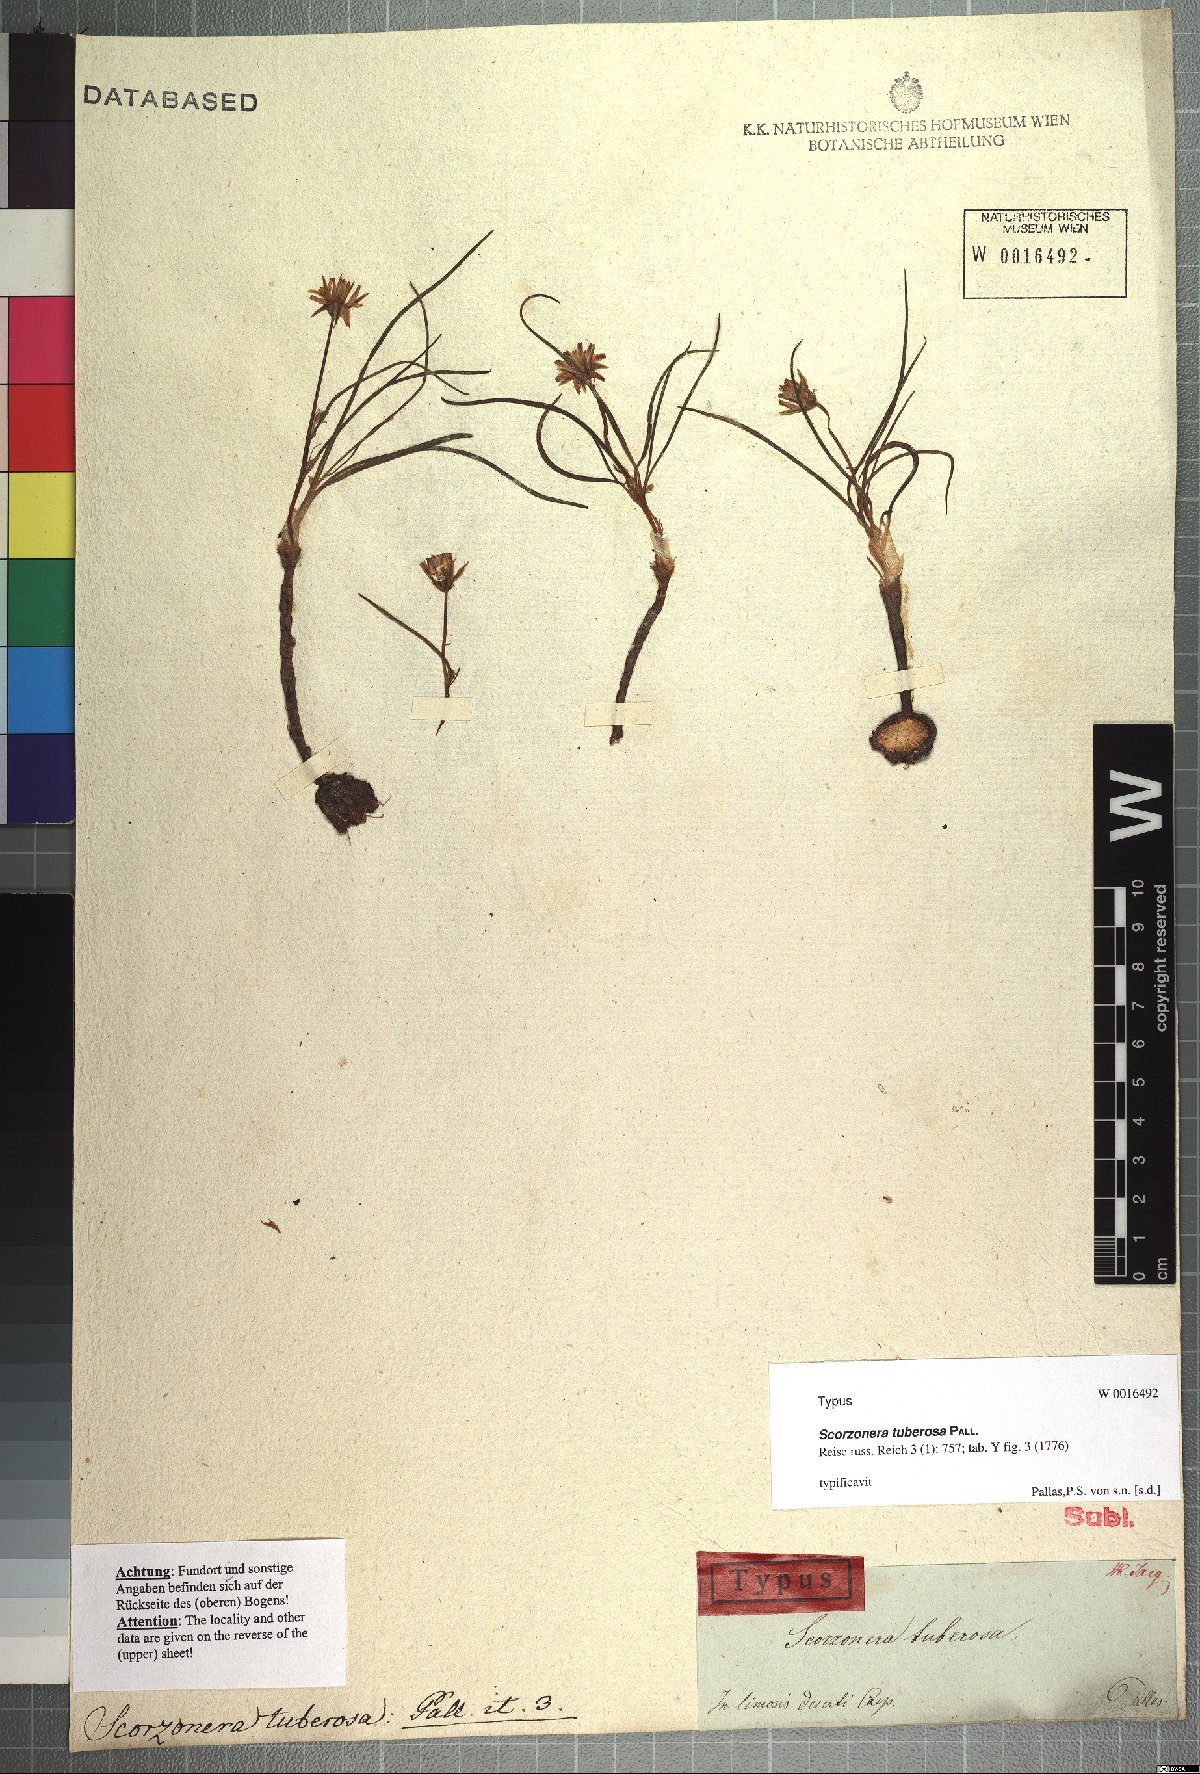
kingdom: Plantae
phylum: Tracheophyta
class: Magnoliopsida
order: Asterales
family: Asteraceae
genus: Gelasia
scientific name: Gelasia tuberosa
